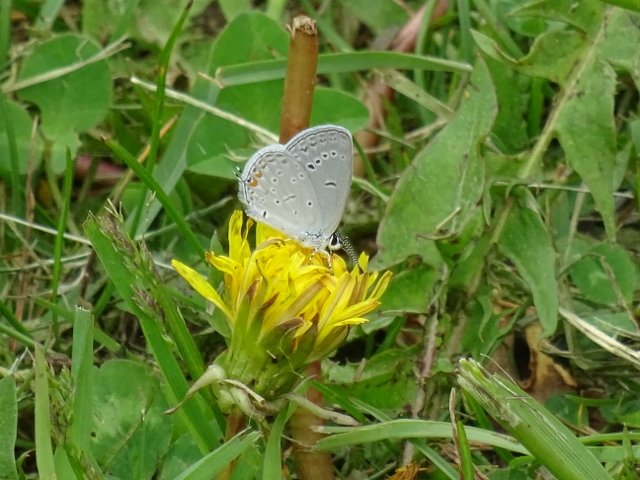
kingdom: Animalia
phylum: Arthropoda
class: Insecta
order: Lepidoptera
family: Lycaenidae
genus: Elkalyce
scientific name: Elkalyce comyntas
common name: Eastern Tailed-Blue
